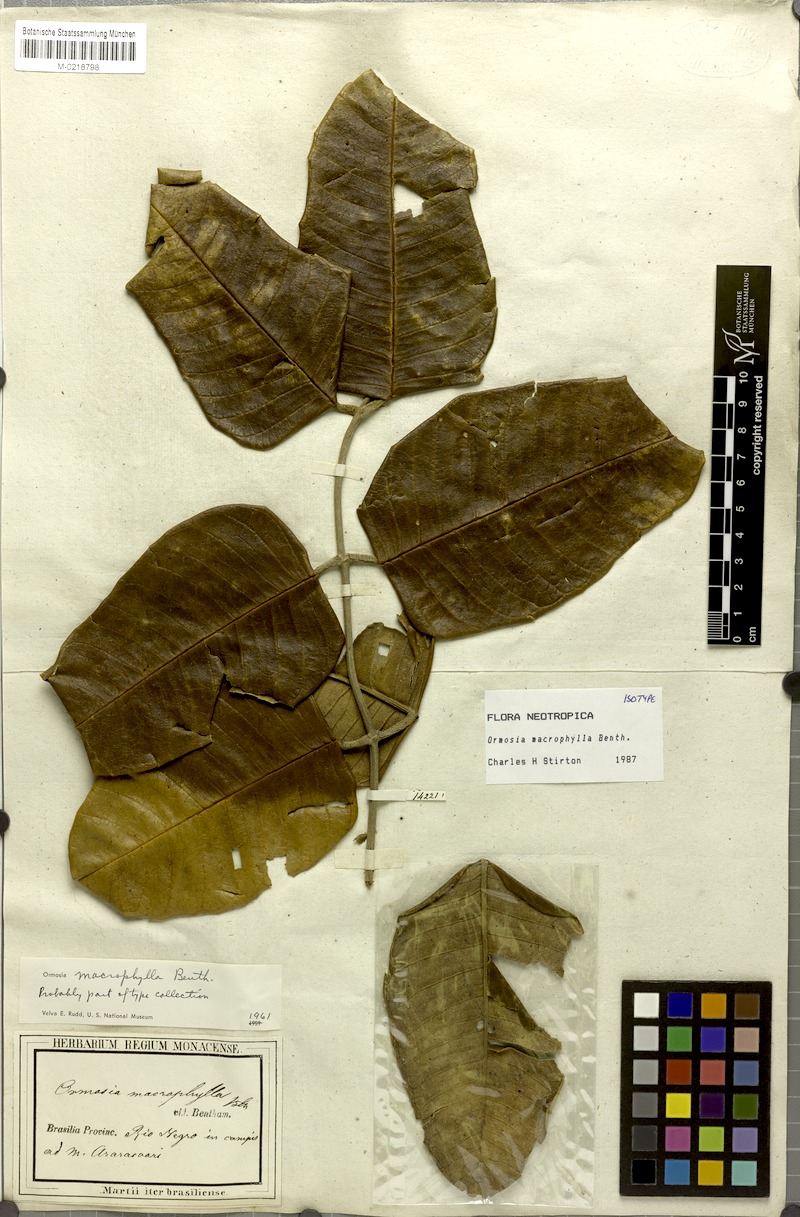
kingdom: Plantae
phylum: Tracheophyta
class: Magnoliopsida
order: Fabales
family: Fabaceae
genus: Ormosia
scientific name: Ormosia macrophylla
